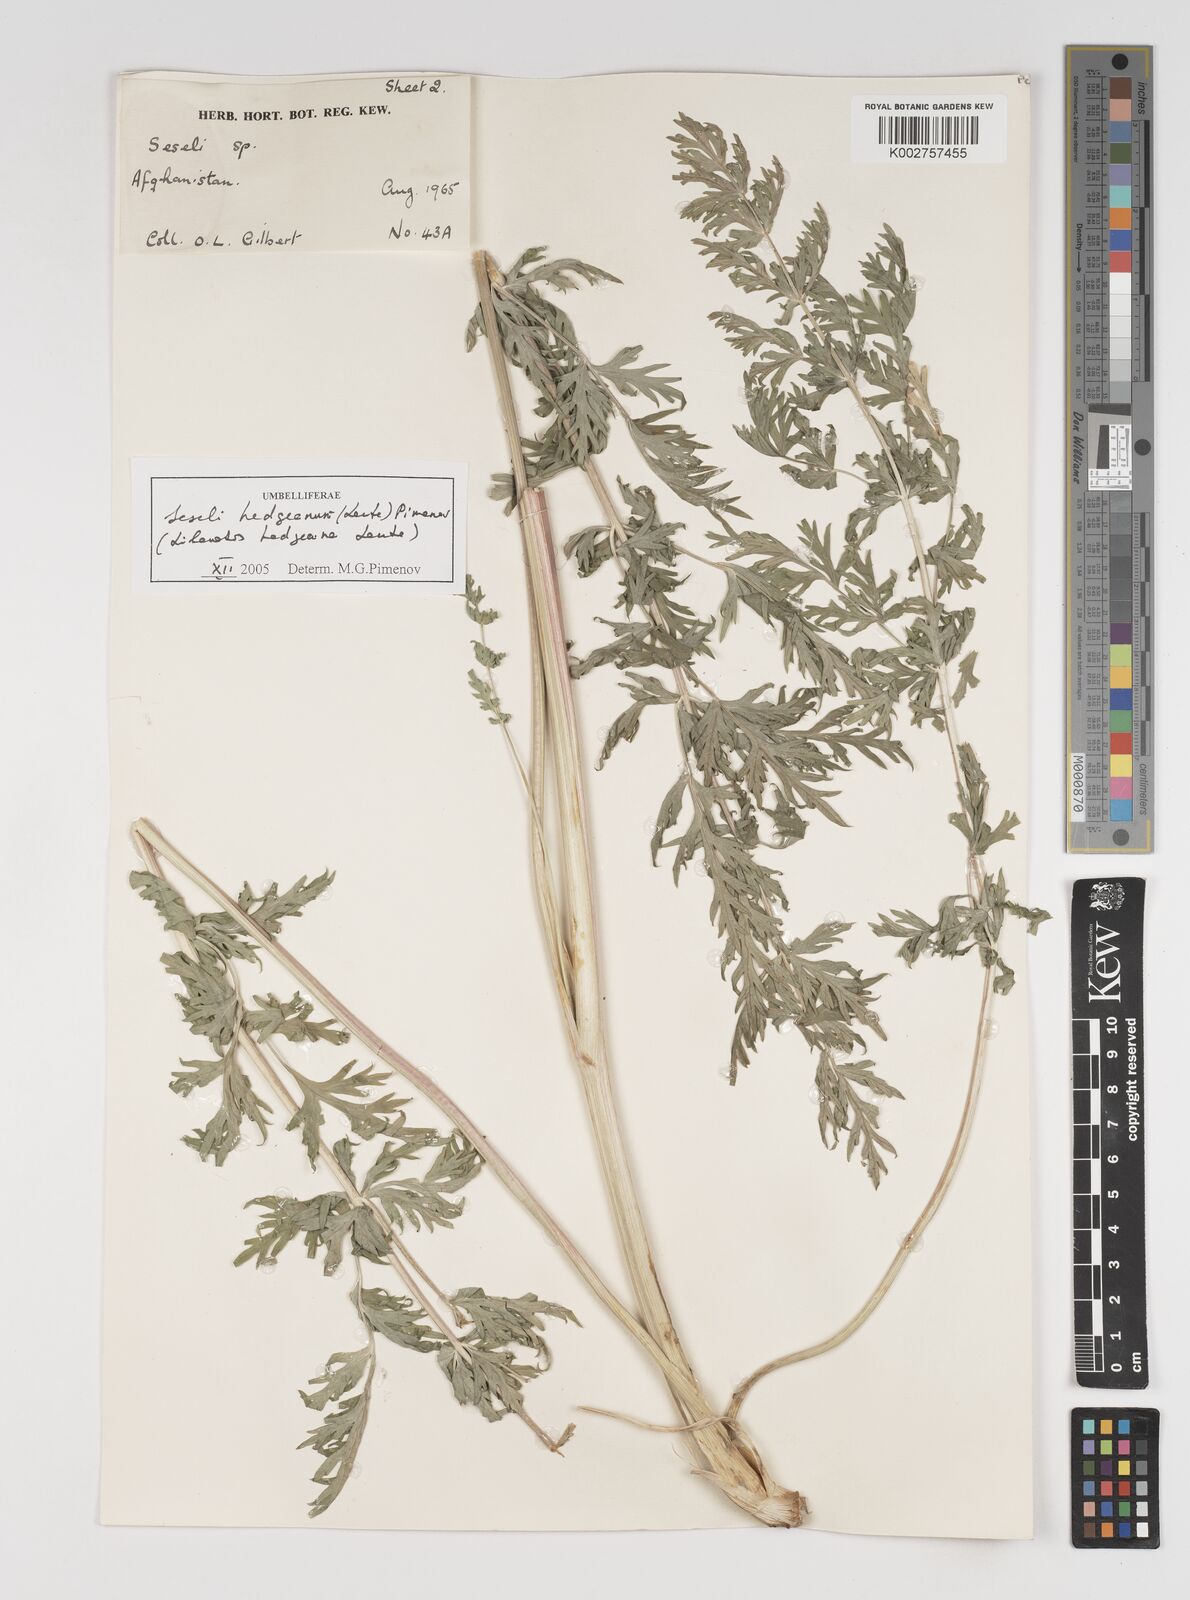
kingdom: Plantae
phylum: Tracheophyta
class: Magnoliopsida
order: Apiales
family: Apiaceae
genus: Seseli
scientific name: Seseli
